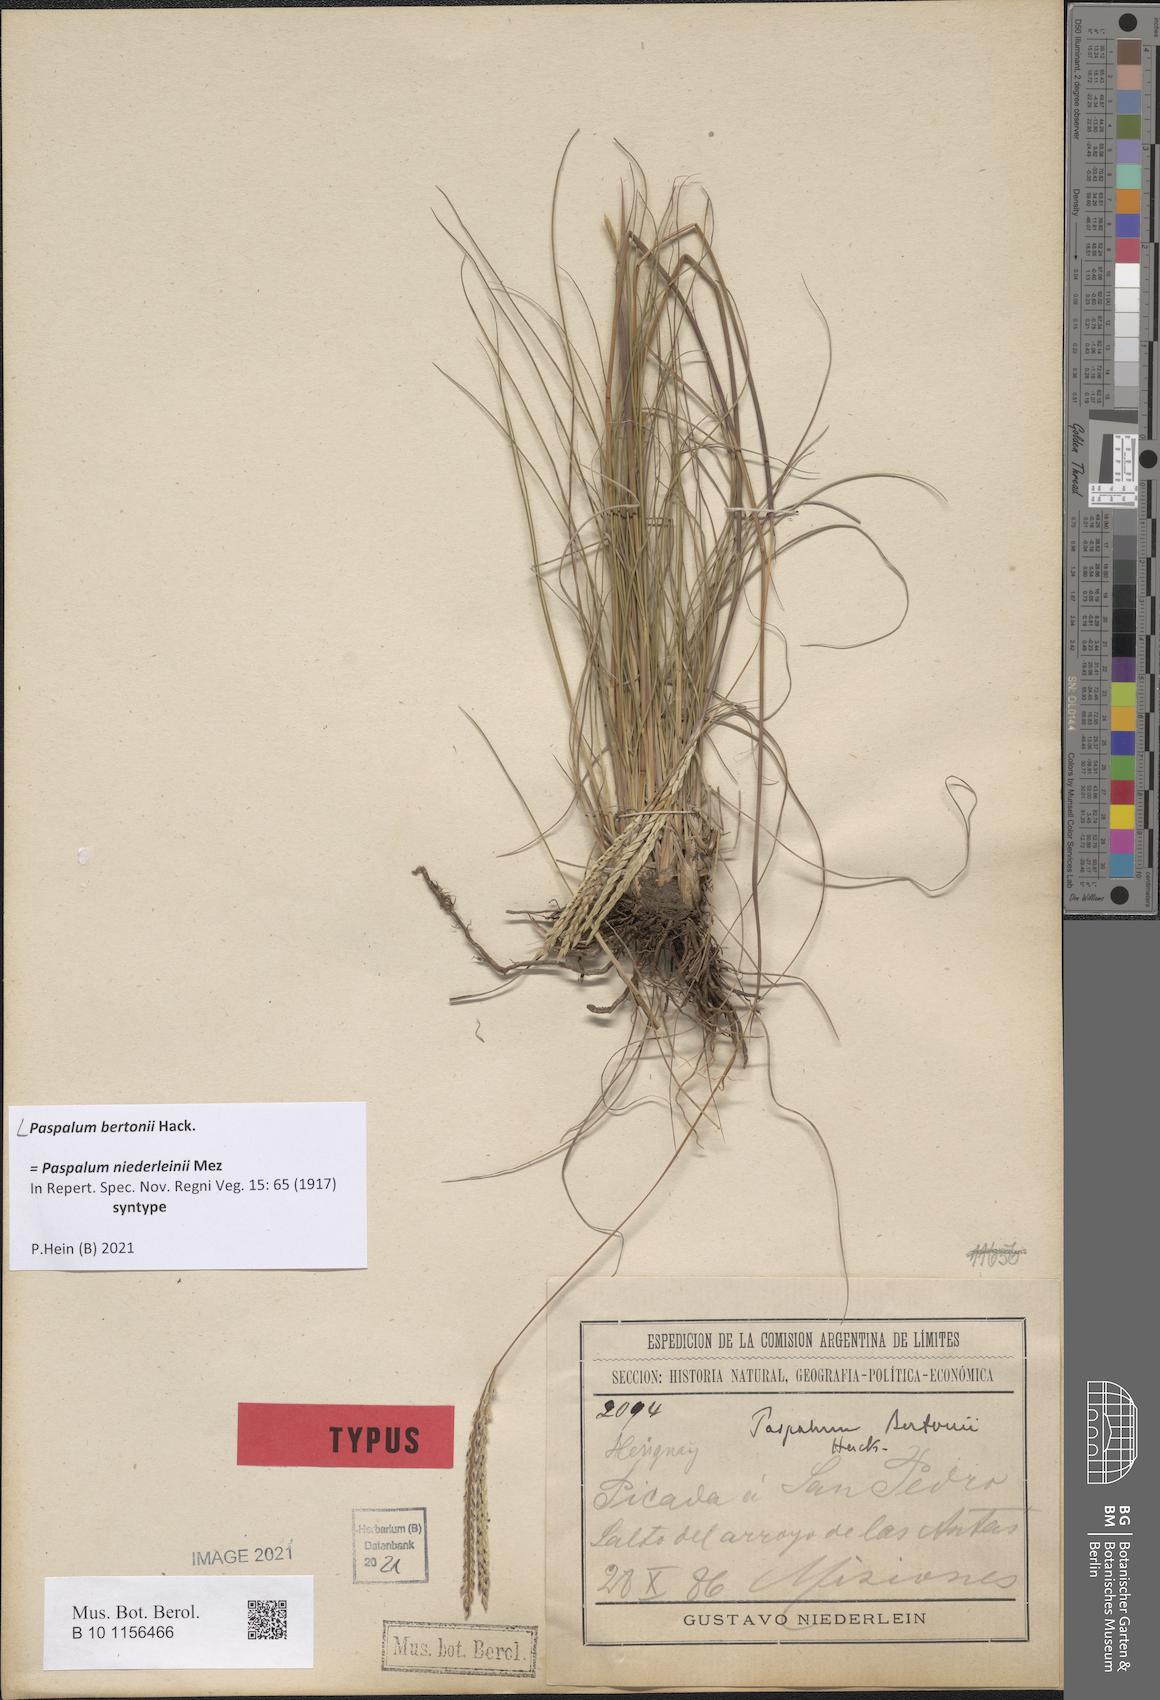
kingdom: Plantae
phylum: Tracheophyta
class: Liliopsida
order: Poales
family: Poaceae
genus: Paspalum
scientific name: Paspalum bertonii
